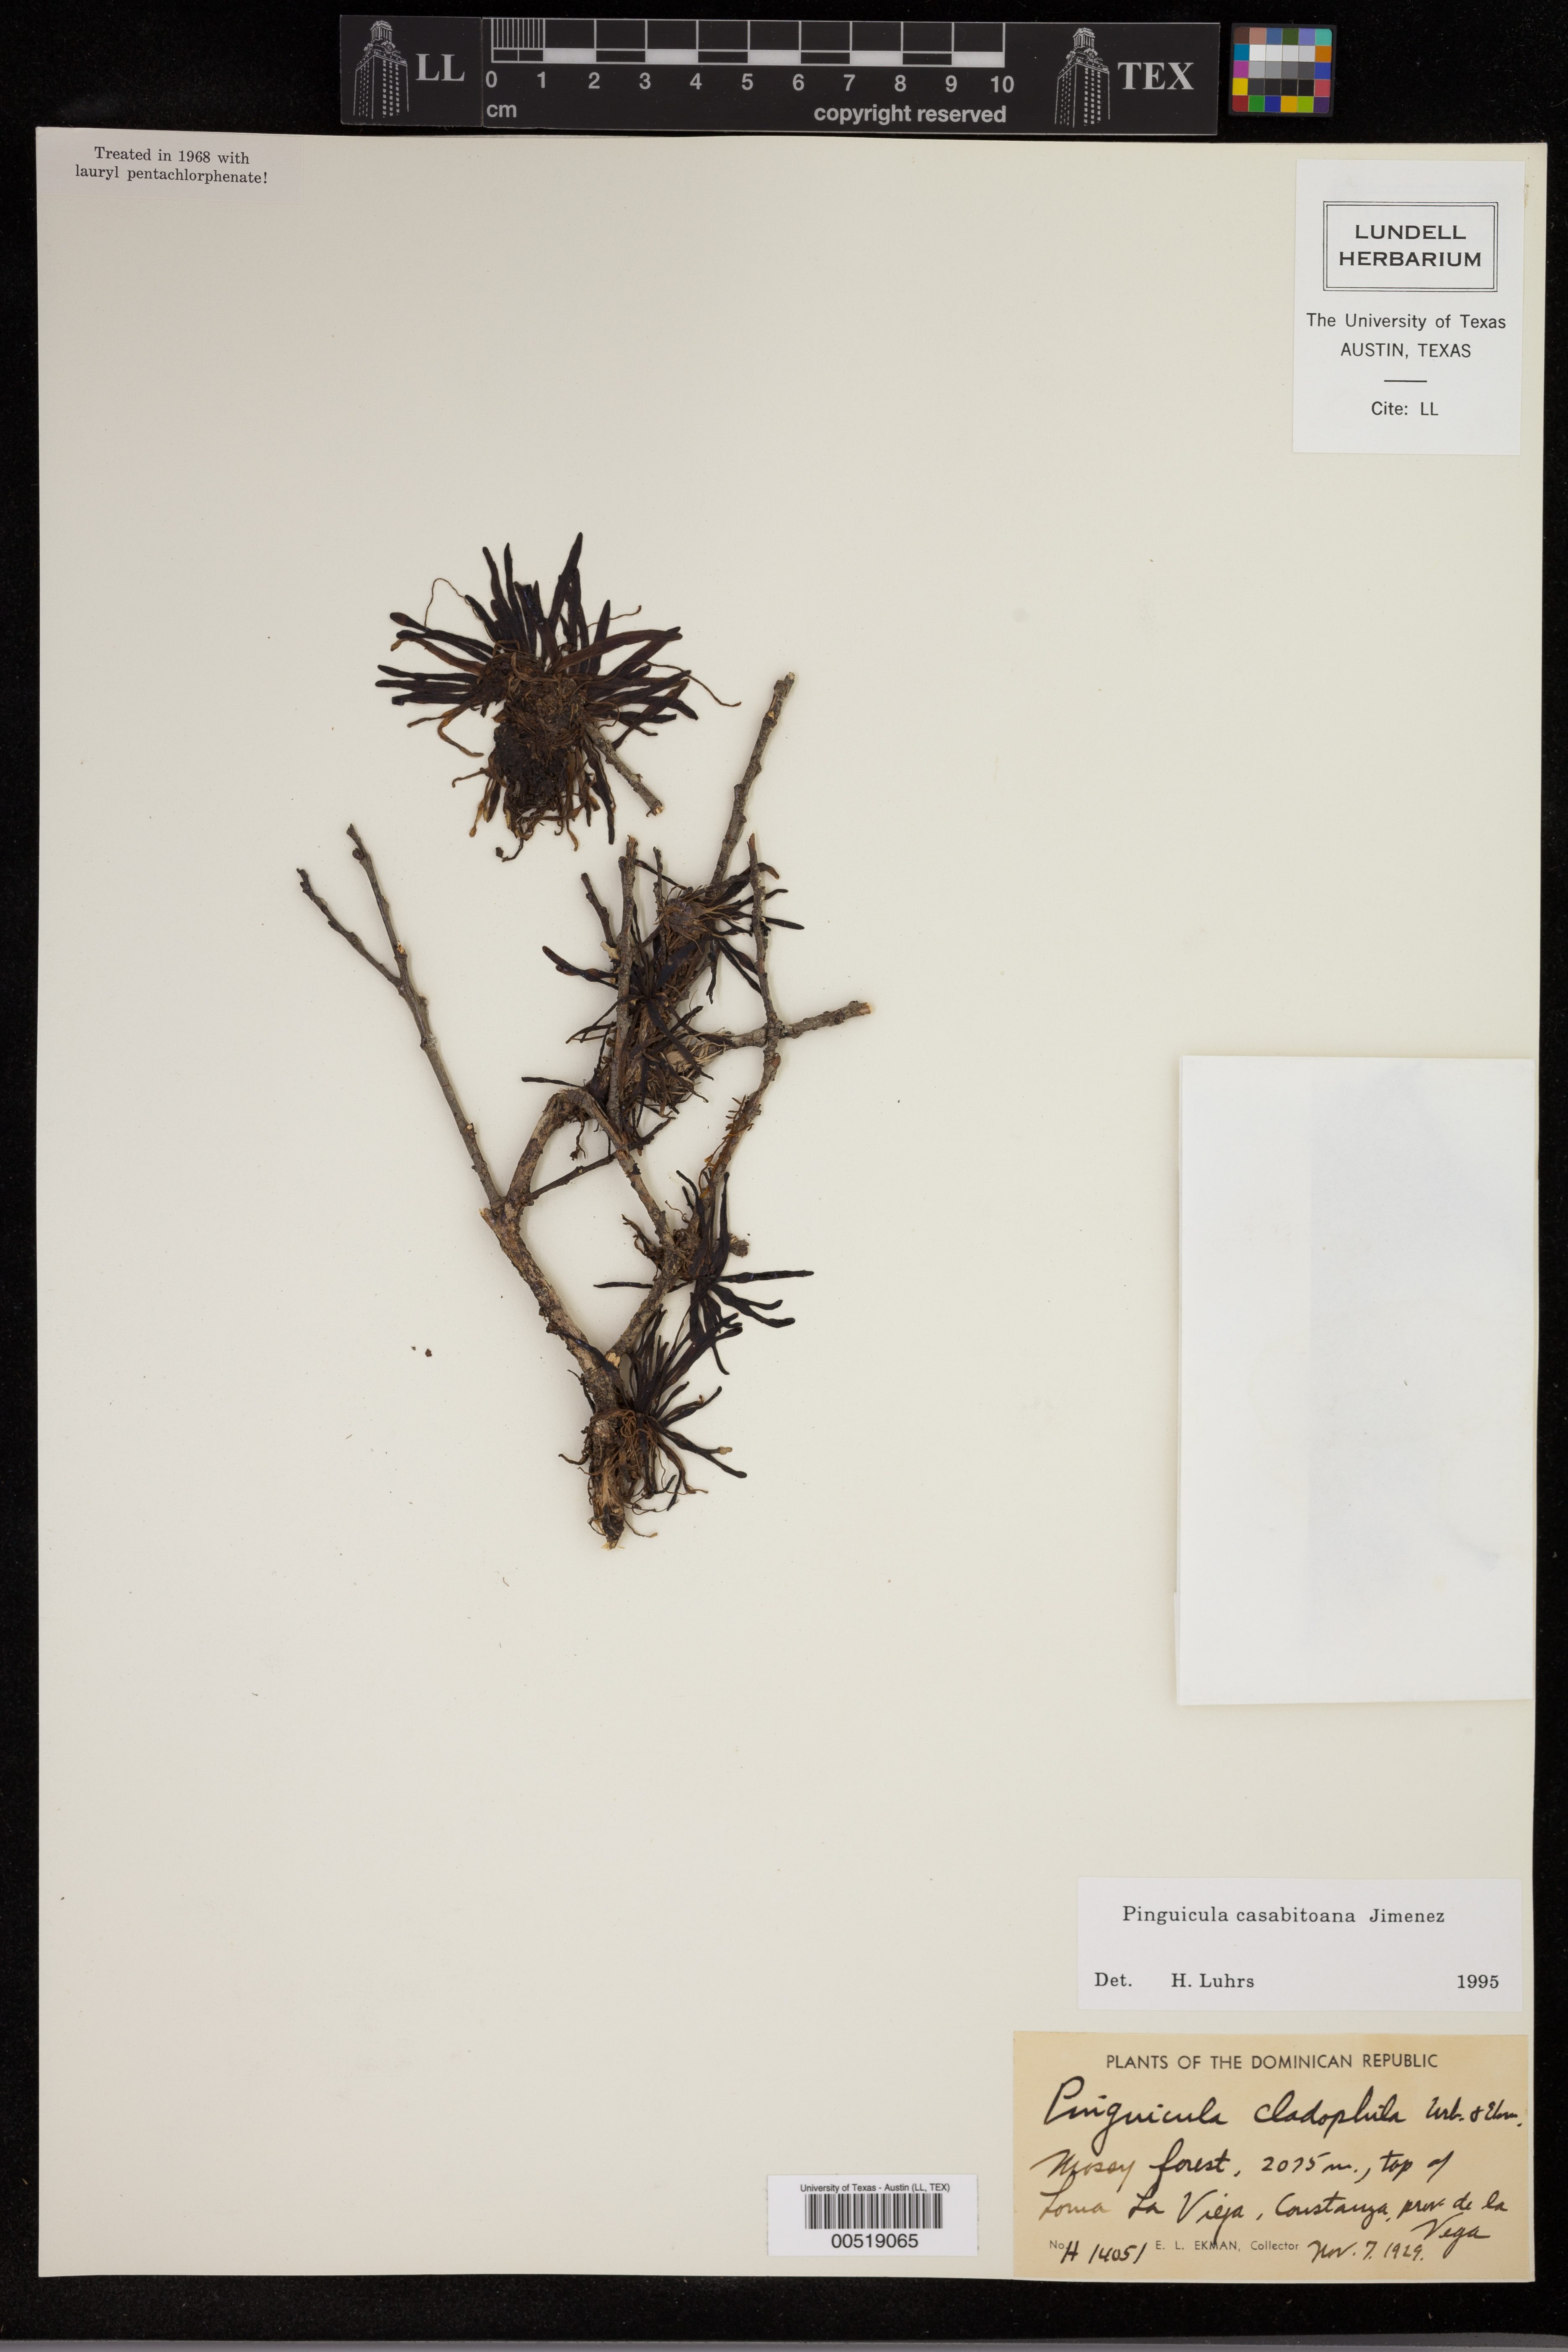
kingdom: Plantae
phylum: Tracheophyta
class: Magnoliopsida
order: Lamiales
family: Lentibulariaceae
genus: Pinguicula
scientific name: Pinguicula casabitoana
